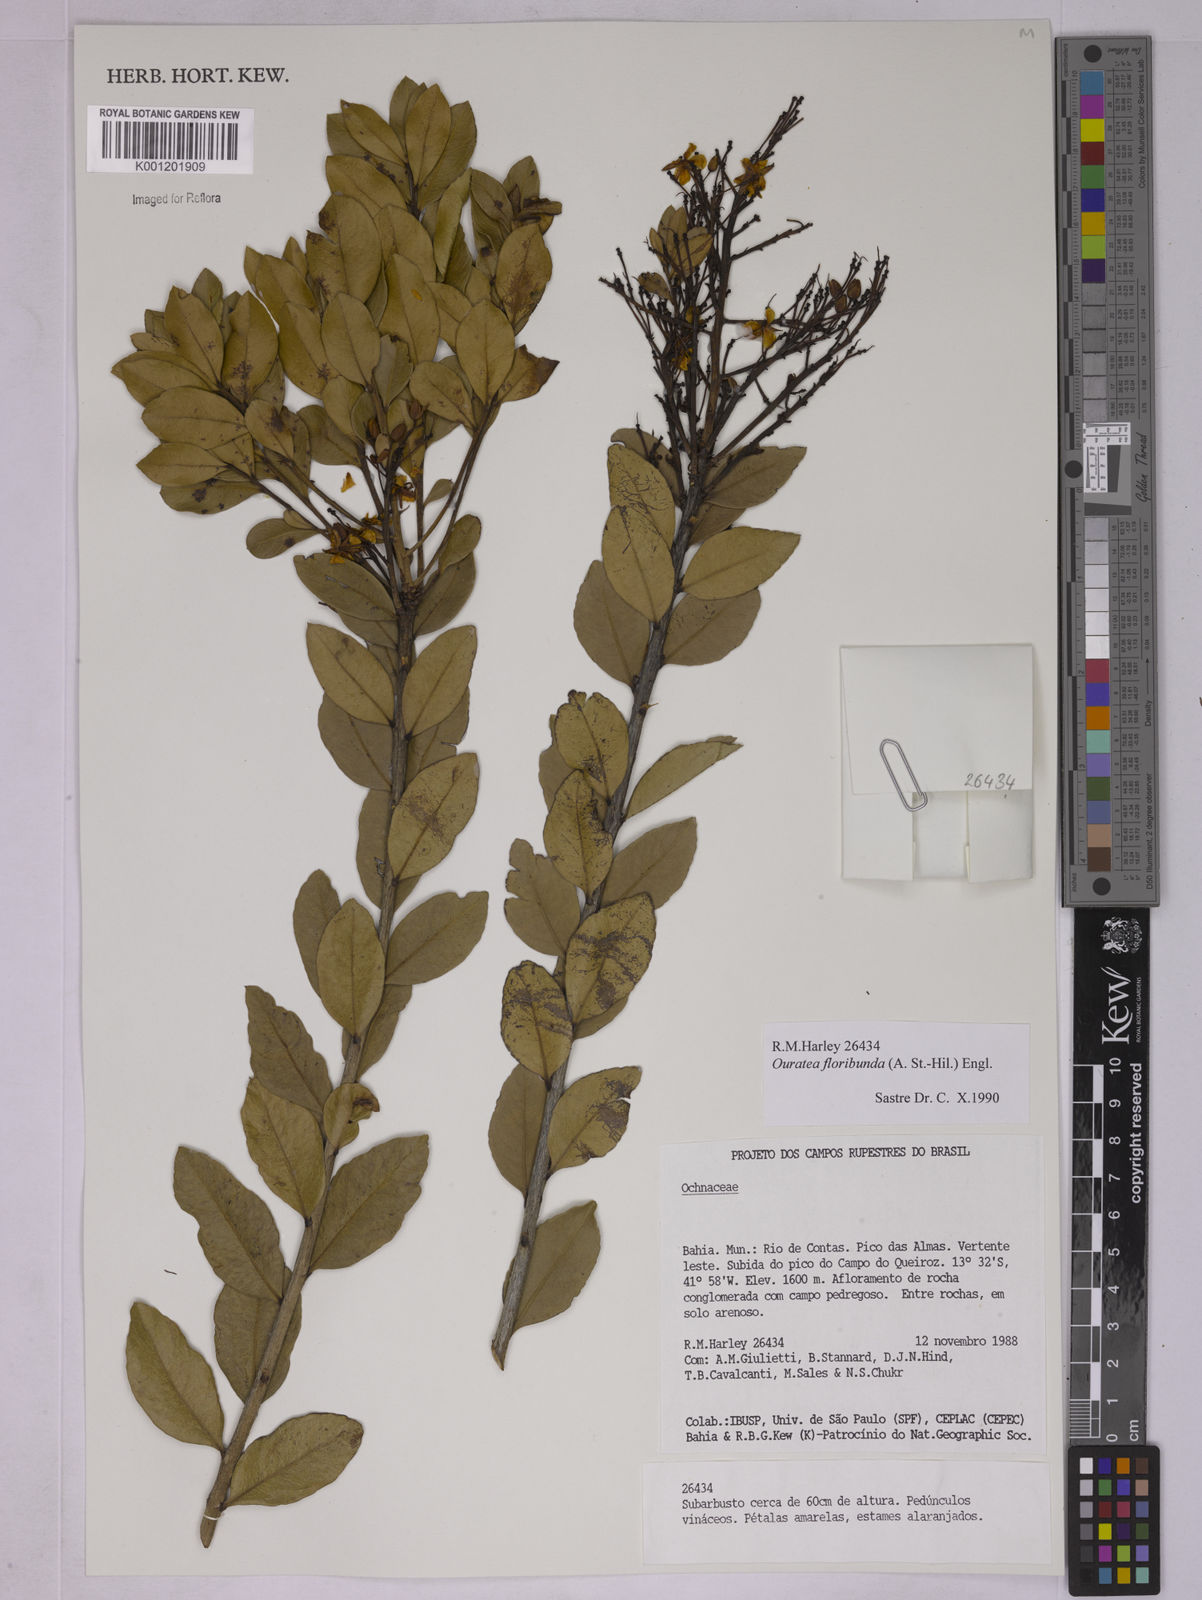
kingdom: Plantae
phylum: Tracheophyta
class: Magnoliopsida
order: Malpighiales
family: Ochnaceae
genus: Ouratea
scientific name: Ouratea floribunda
